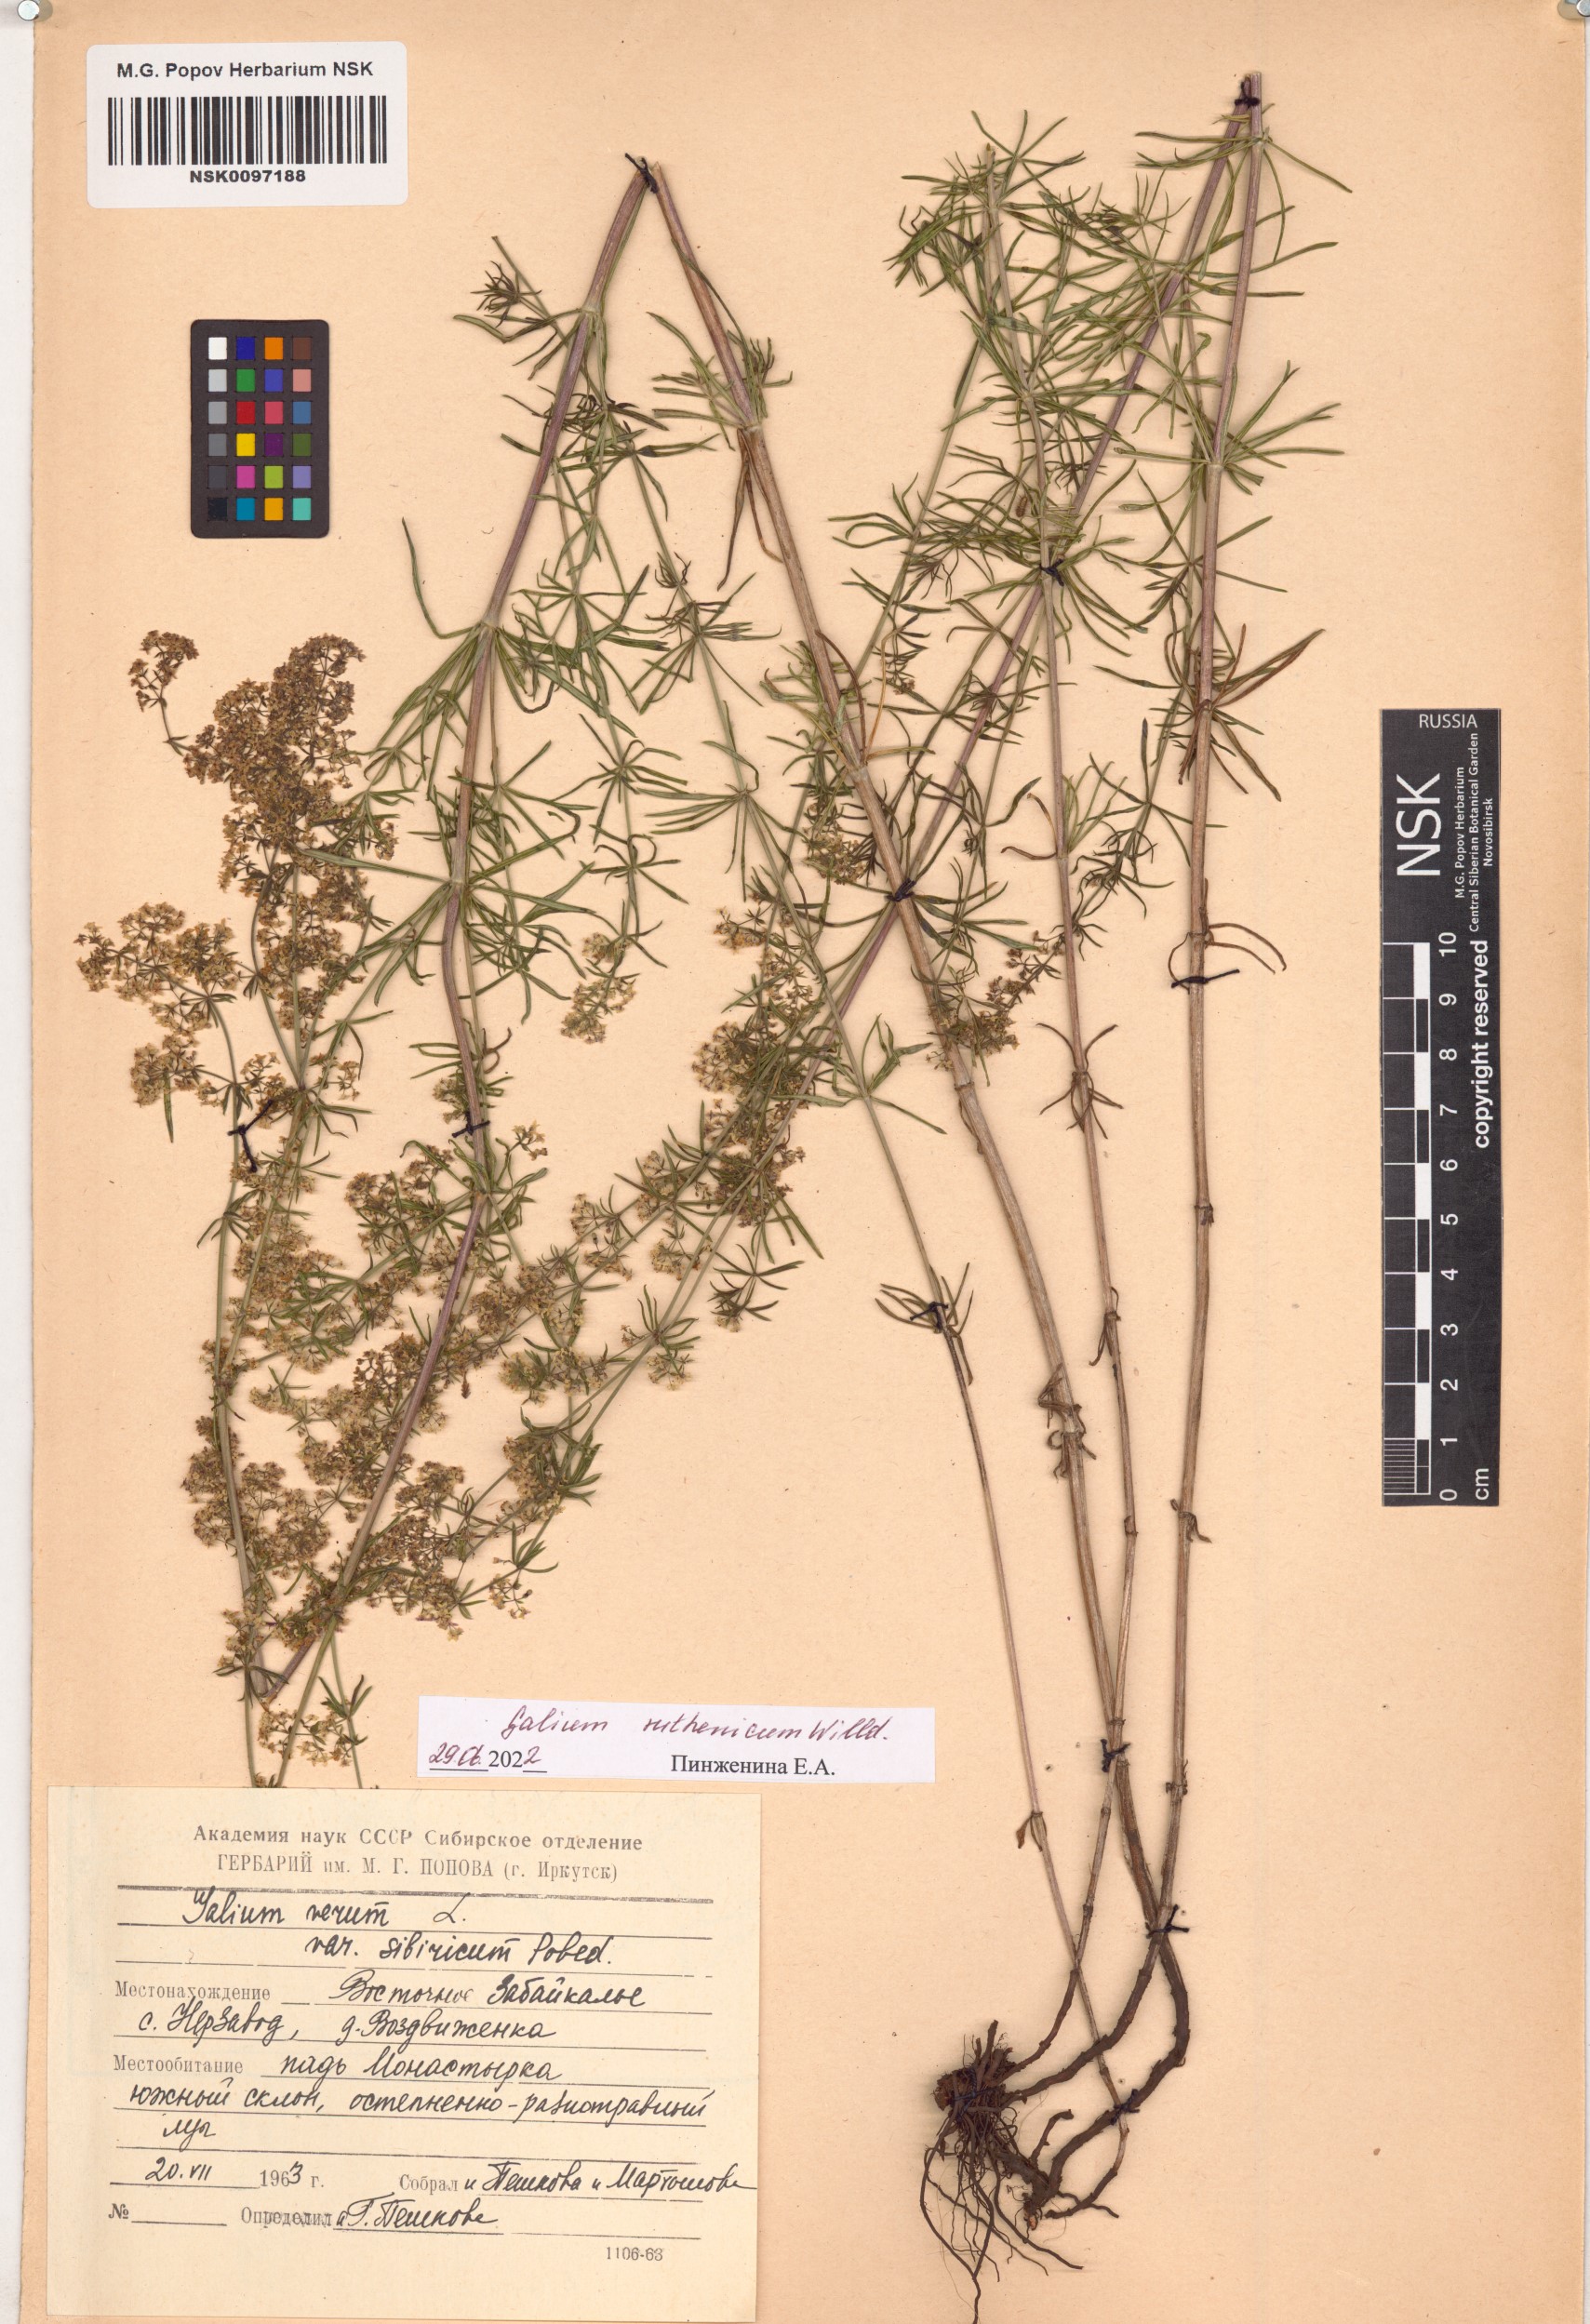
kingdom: Plantae
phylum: Tracheophyta
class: Magnoliopsida
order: Gentianales
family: Rubiaceae
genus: Galium
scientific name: Galium verum
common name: Lady's bedstraw
